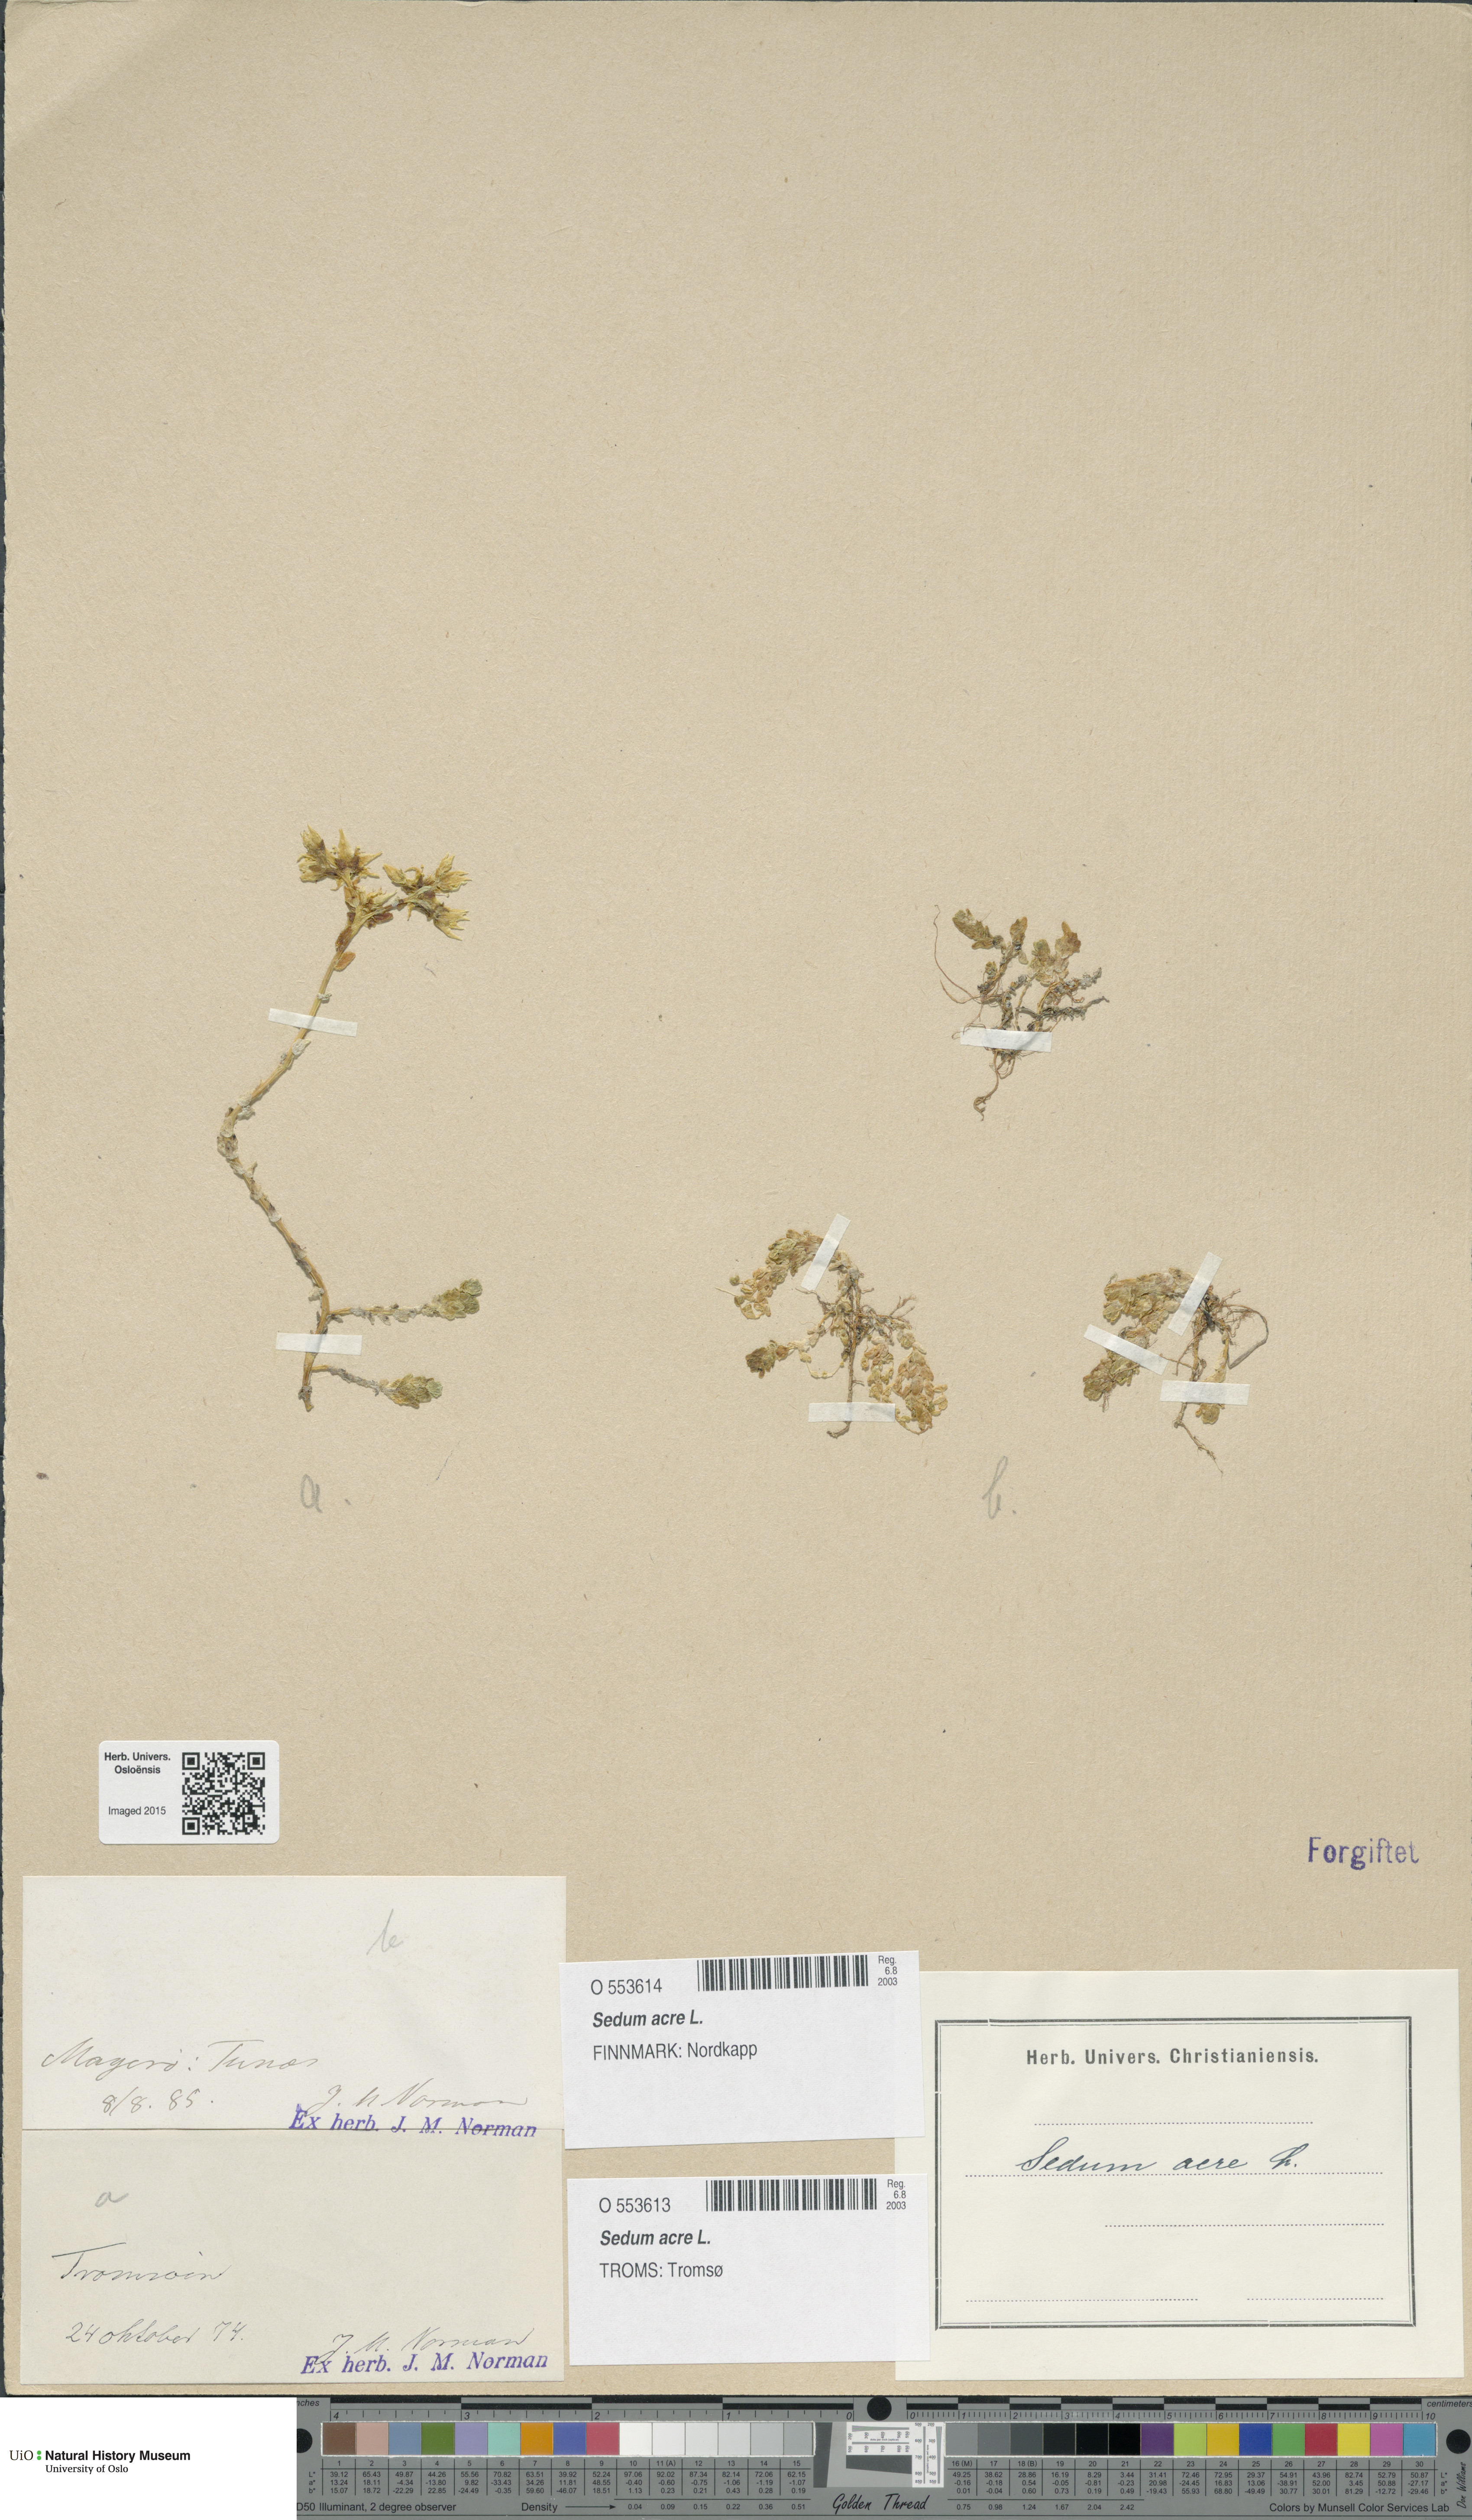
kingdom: Plantae
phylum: Tracheophyta
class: Magnoliopsida
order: Saxifragales
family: Crassulaceae
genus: Sedum
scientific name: Sedum acre
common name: Biting stonecrop
